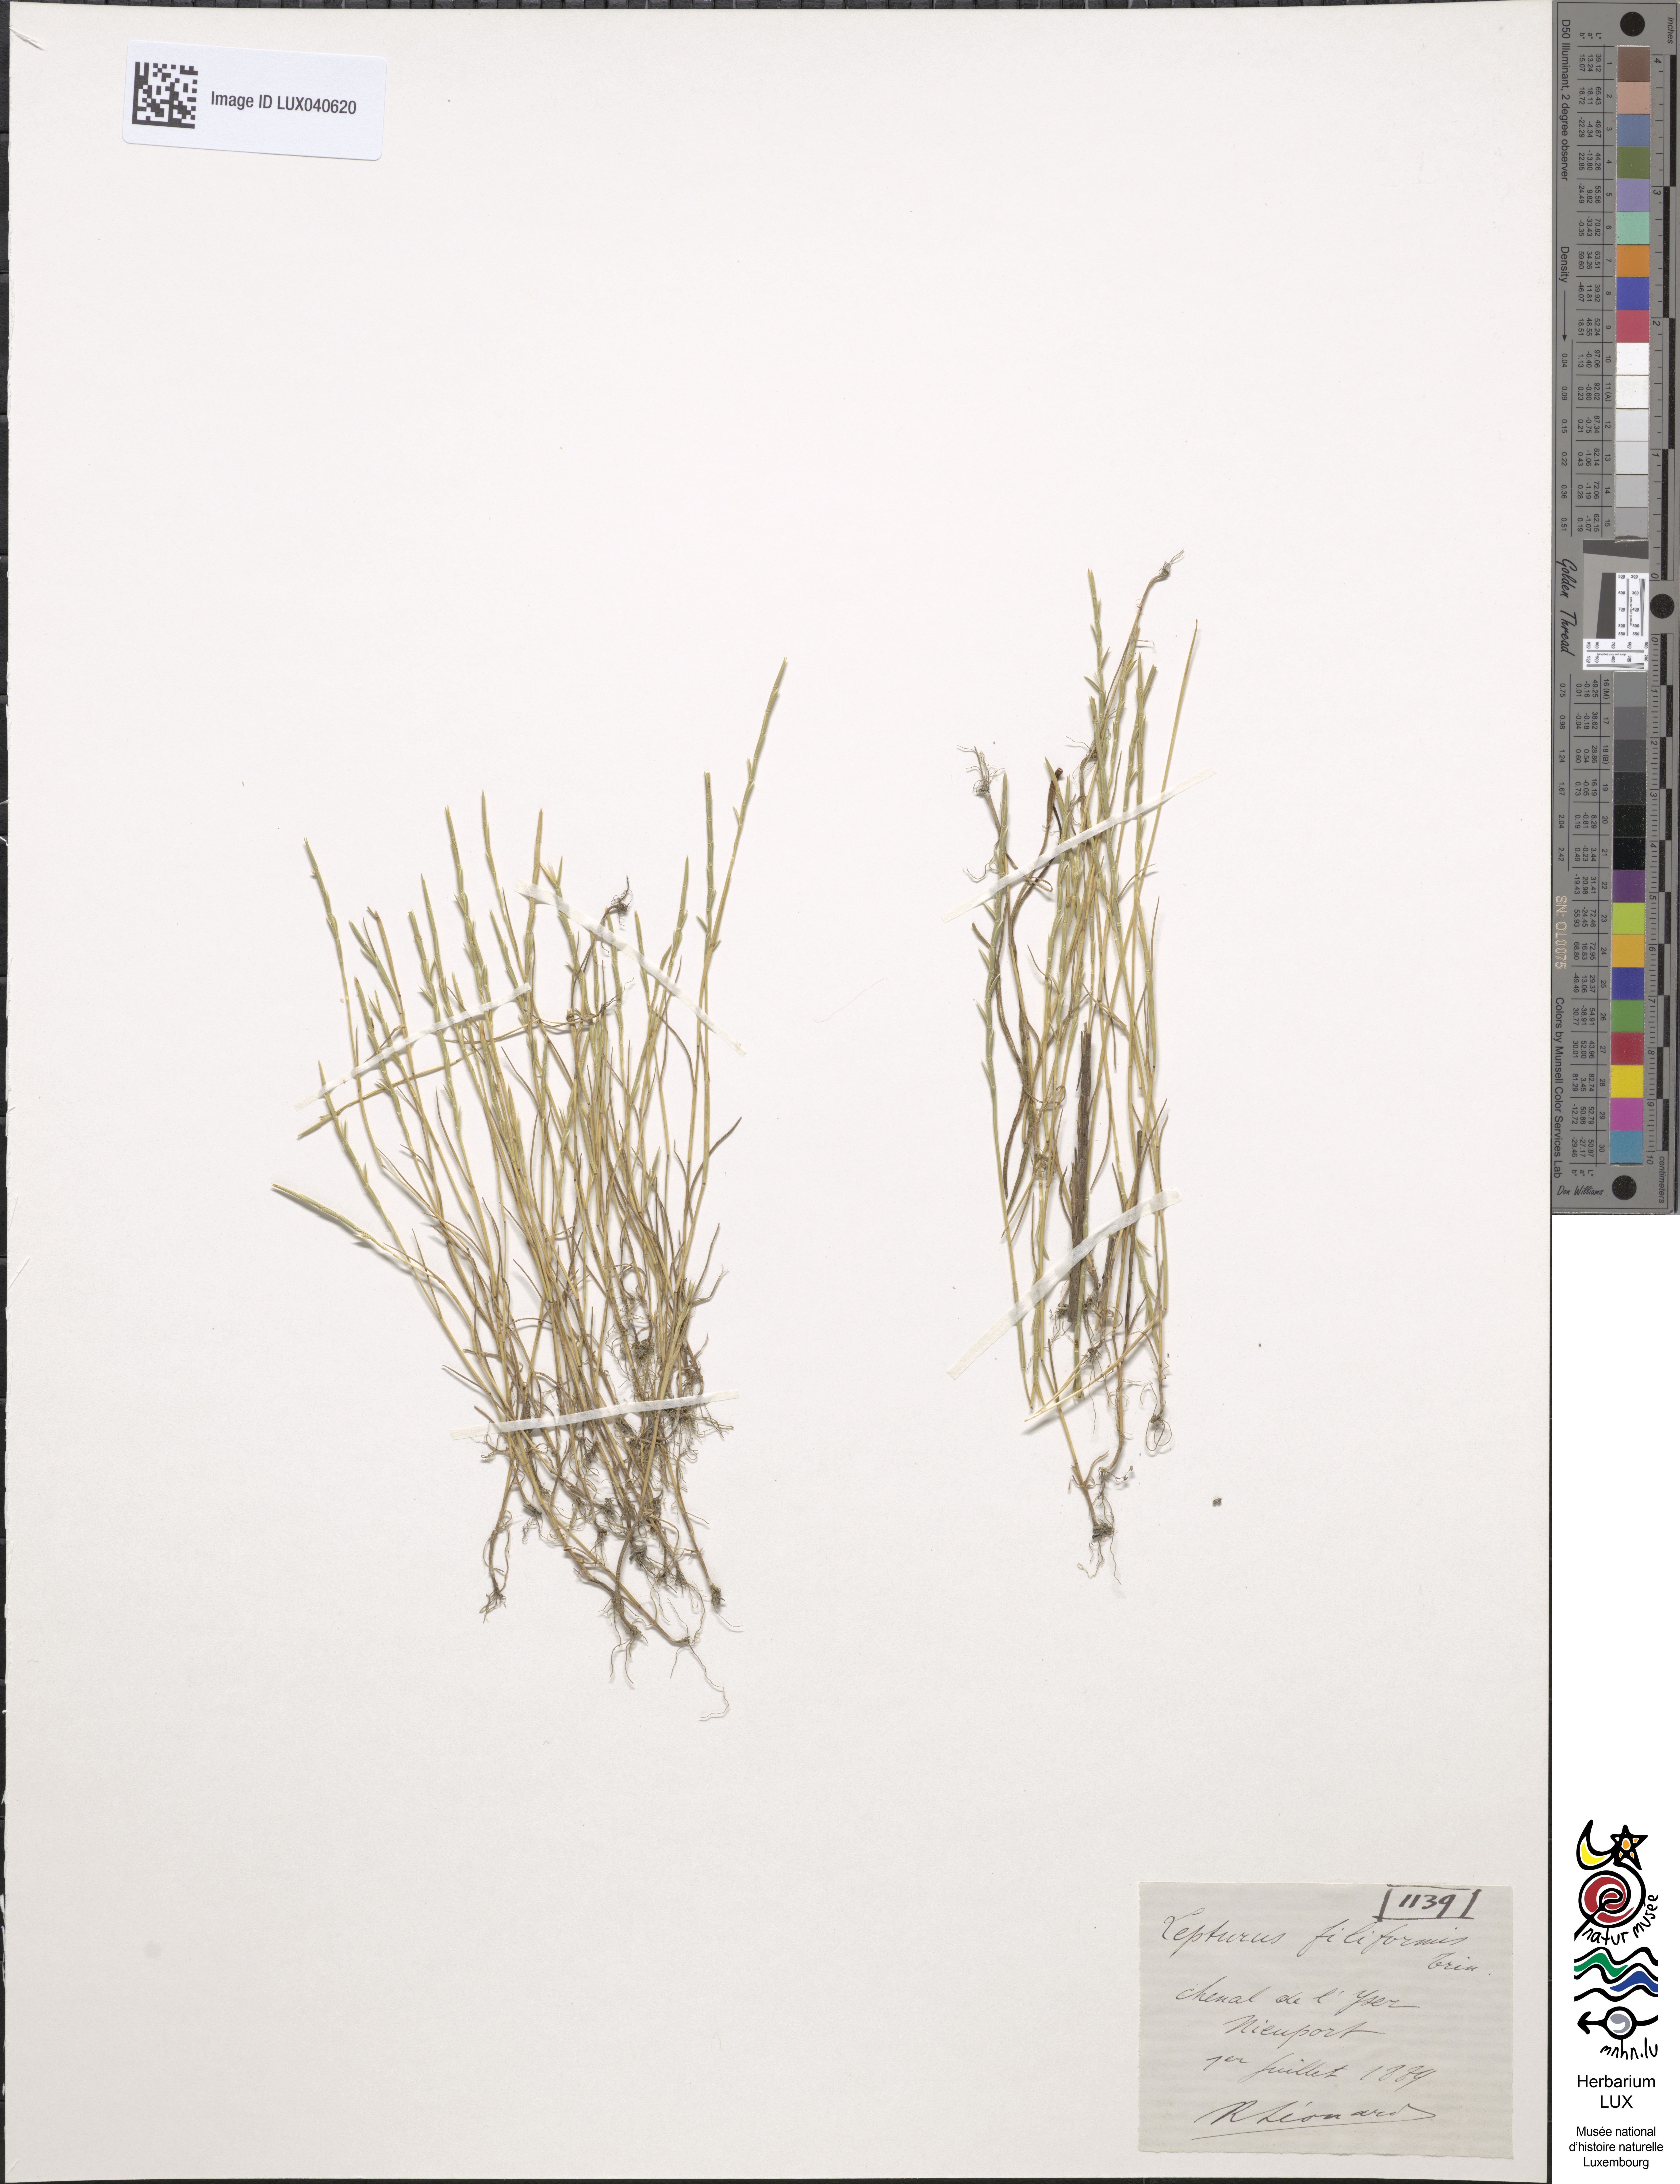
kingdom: Plantae
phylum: Tracheophyta
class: Liliopsida
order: Poales
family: Poaceae
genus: Parapholis
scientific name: Parapholis strigosa
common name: Hard-grass
